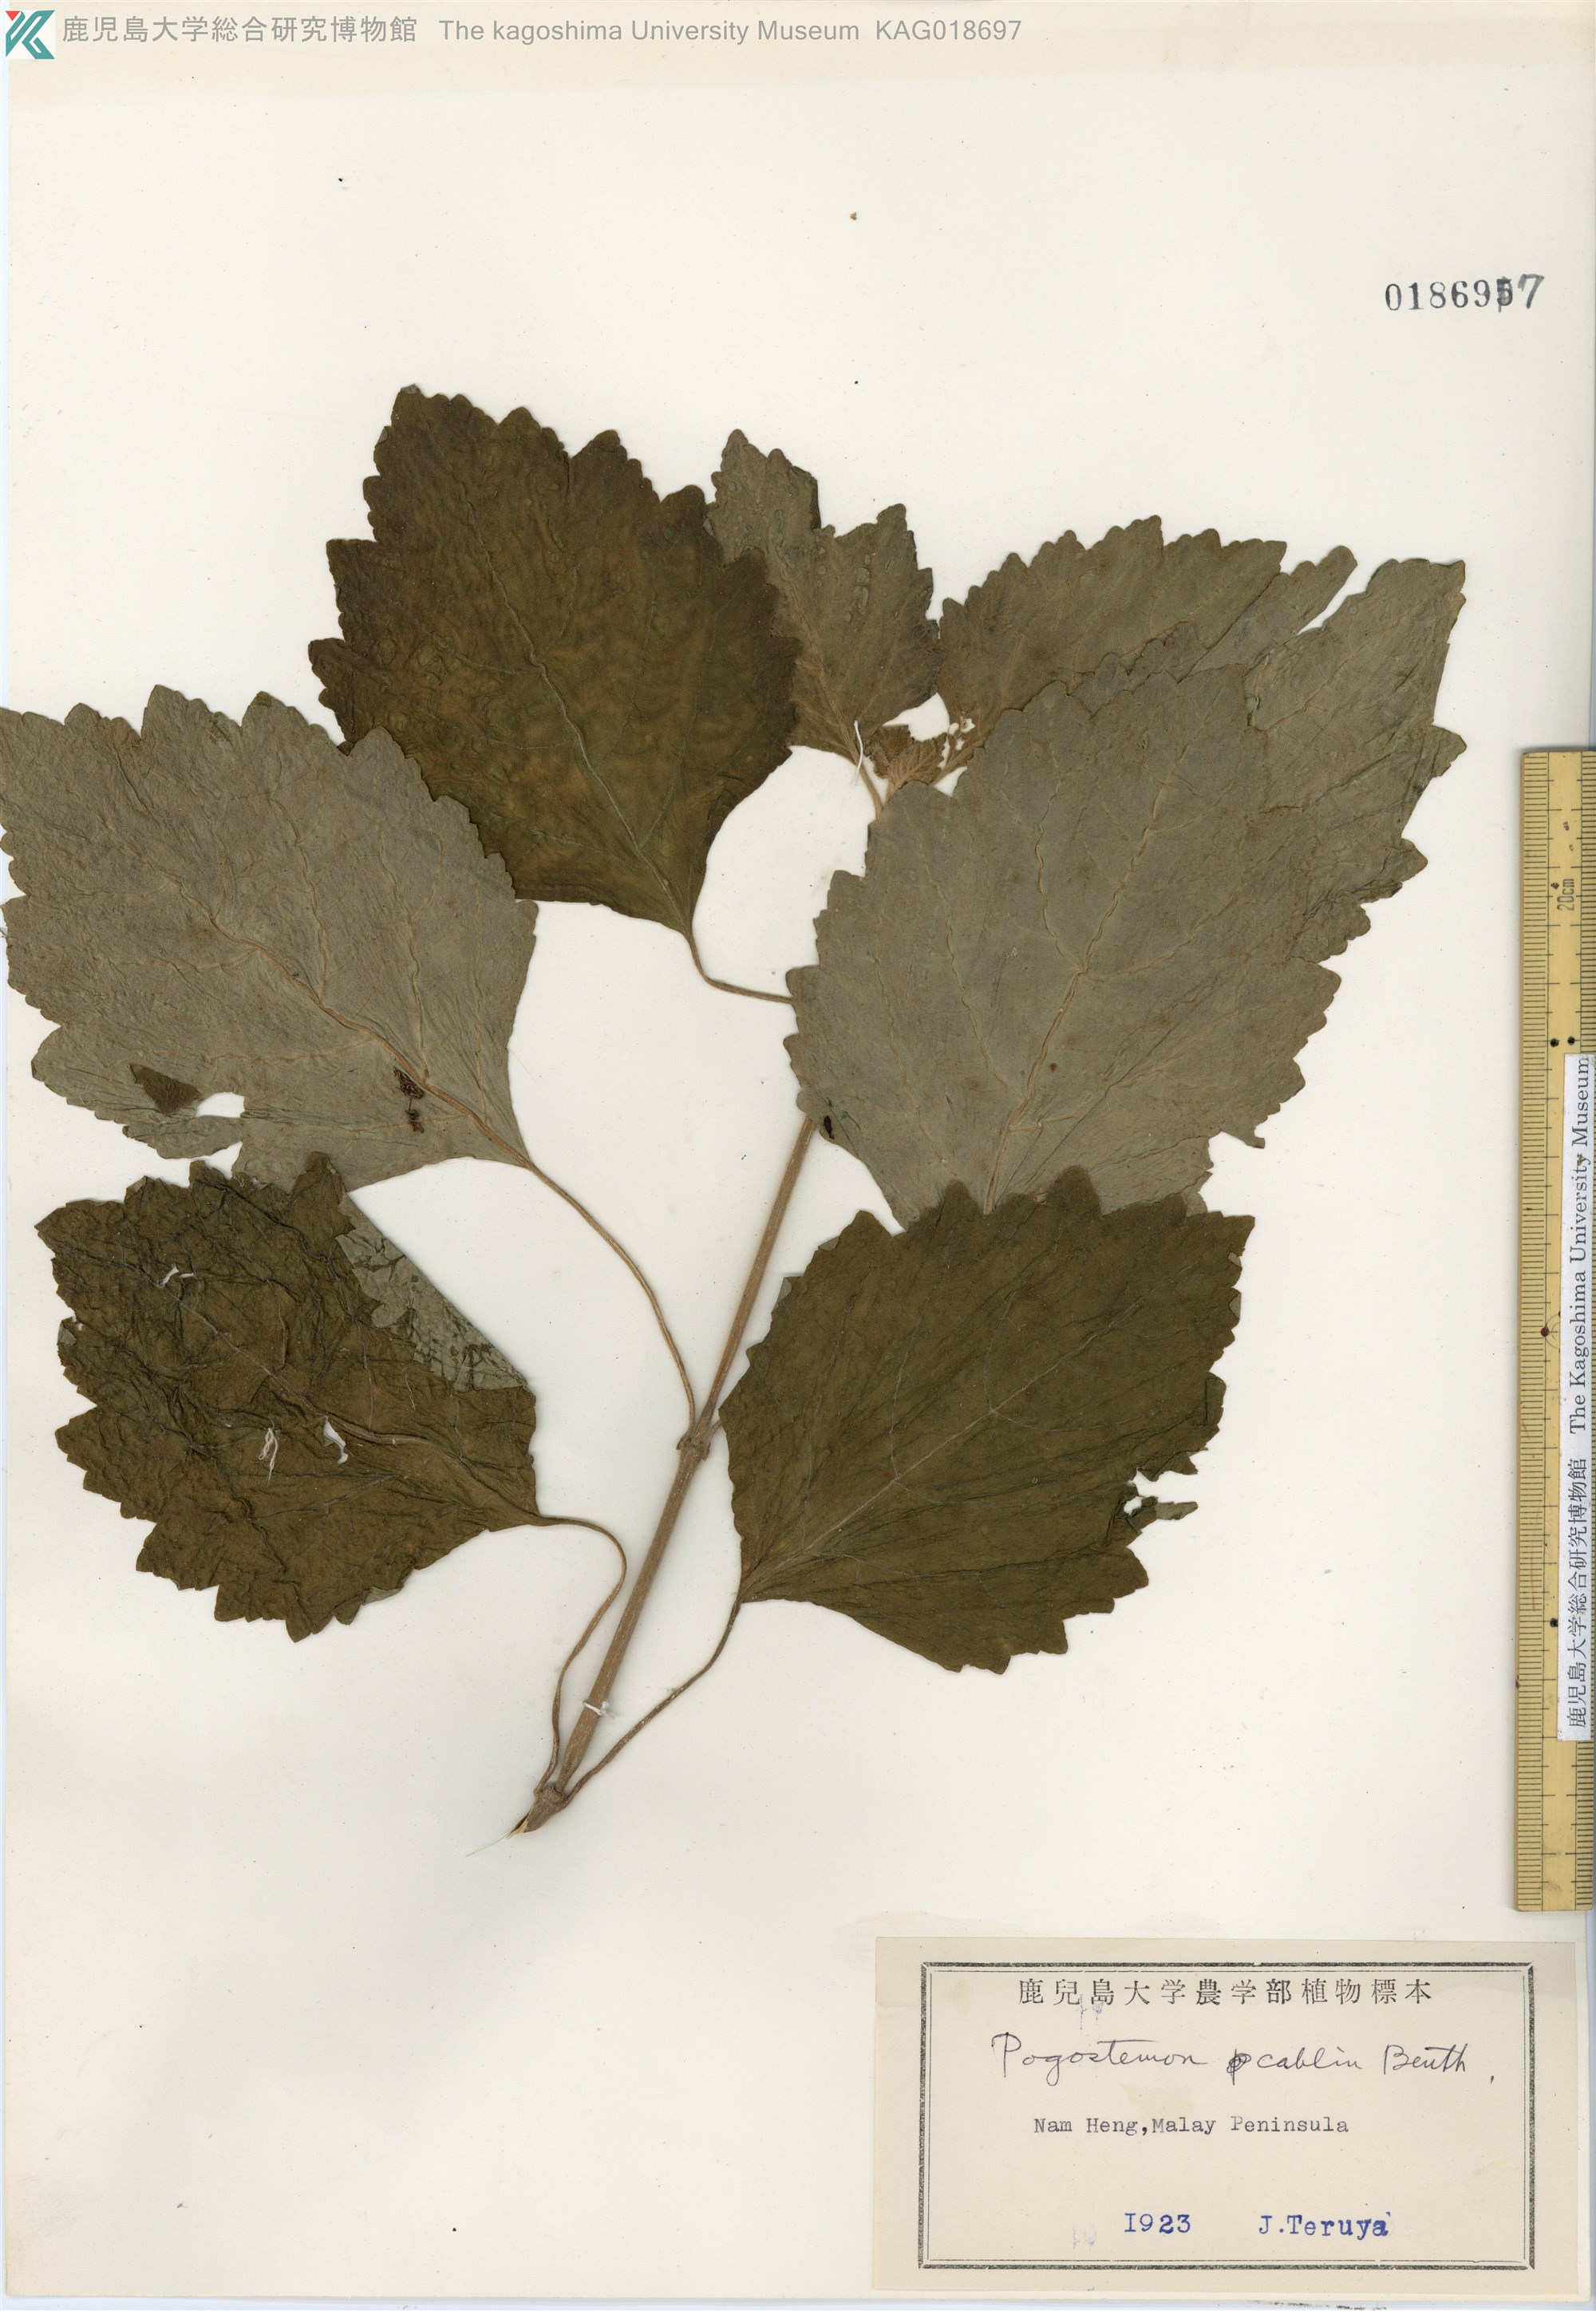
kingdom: Plantae
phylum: Tracheophyta
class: Magnoliopsida
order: Lamiales
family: Lamiaceae
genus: Pogostemon
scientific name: Pogostemon cablin
